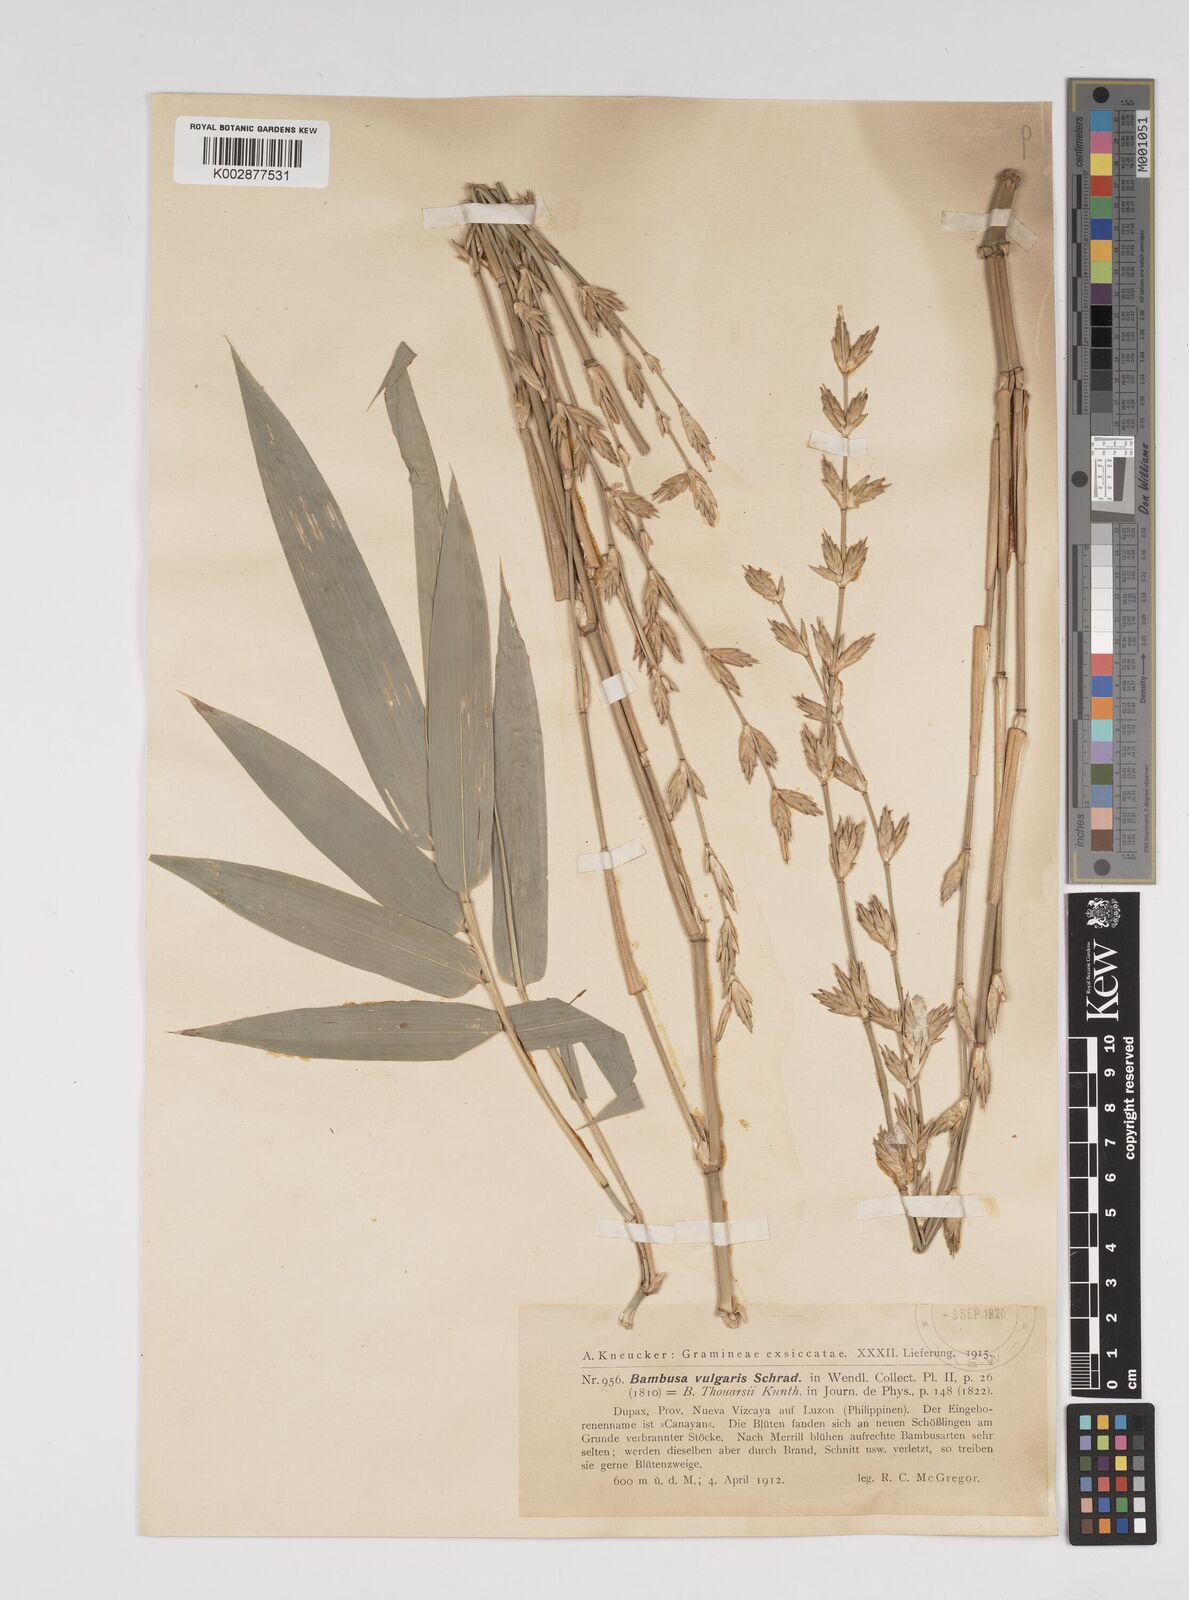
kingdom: Plantae
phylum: Tracheophyta
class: Liliopsida
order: Poales
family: Poaceae
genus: Bambusa
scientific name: Bambusa vulgaris
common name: Common bamboo
